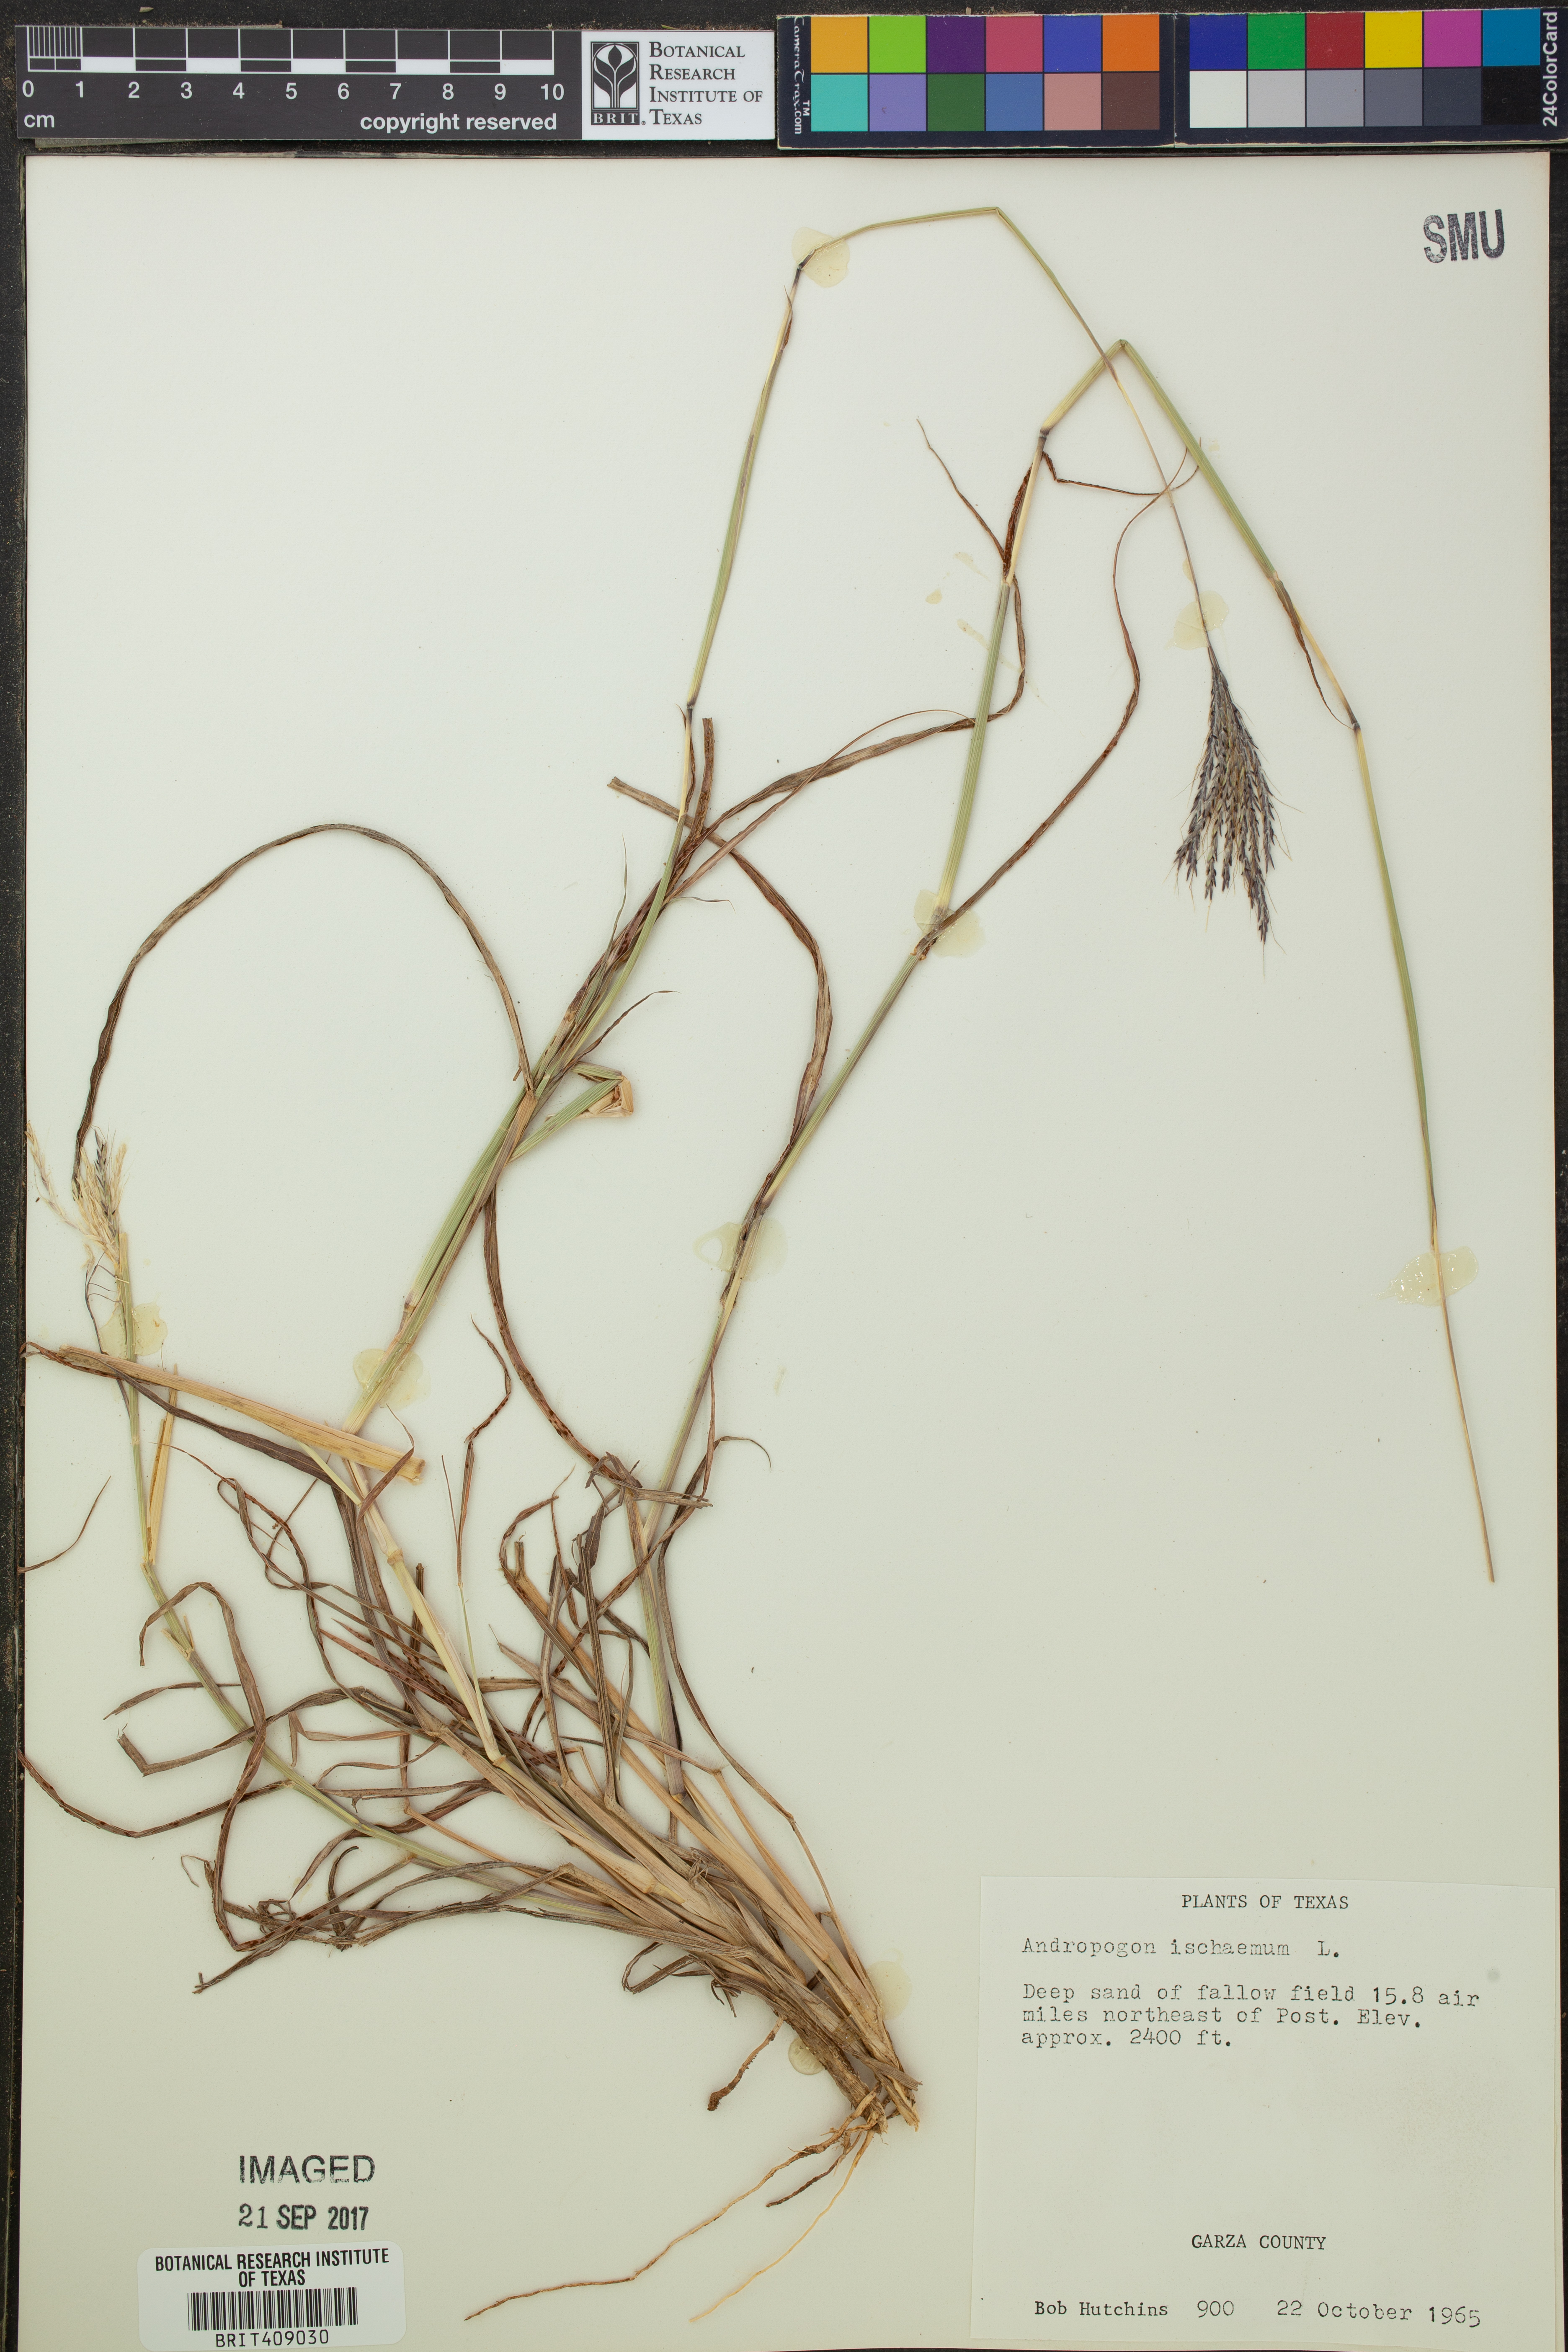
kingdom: Plantae
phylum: Tracheophyta
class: Liliopsida
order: Poales
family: Poaceae
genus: Andropogon
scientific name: Andropogon ischaemum
